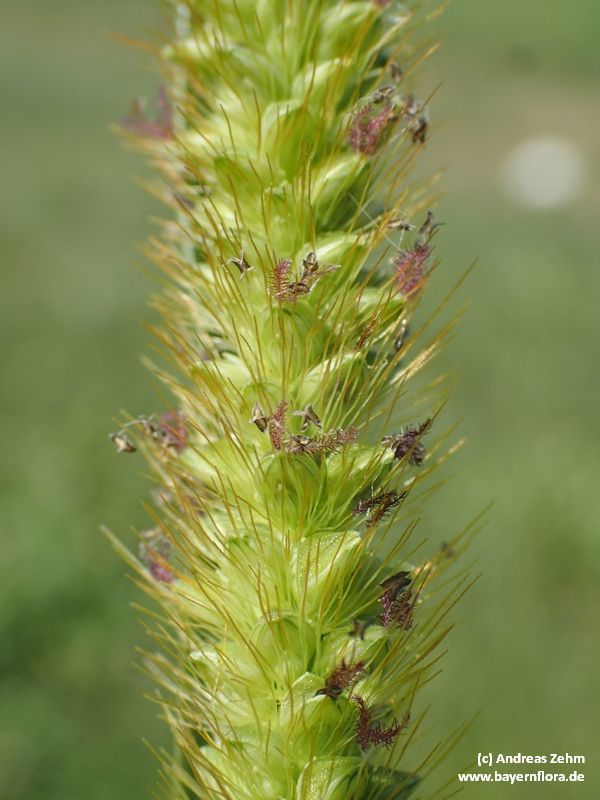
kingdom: Plantae
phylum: Tracheophyta
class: Liliopsida
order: Poales
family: Poaceae
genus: Setaria
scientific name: Setaria pumila
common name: Yellow bristle-grass
